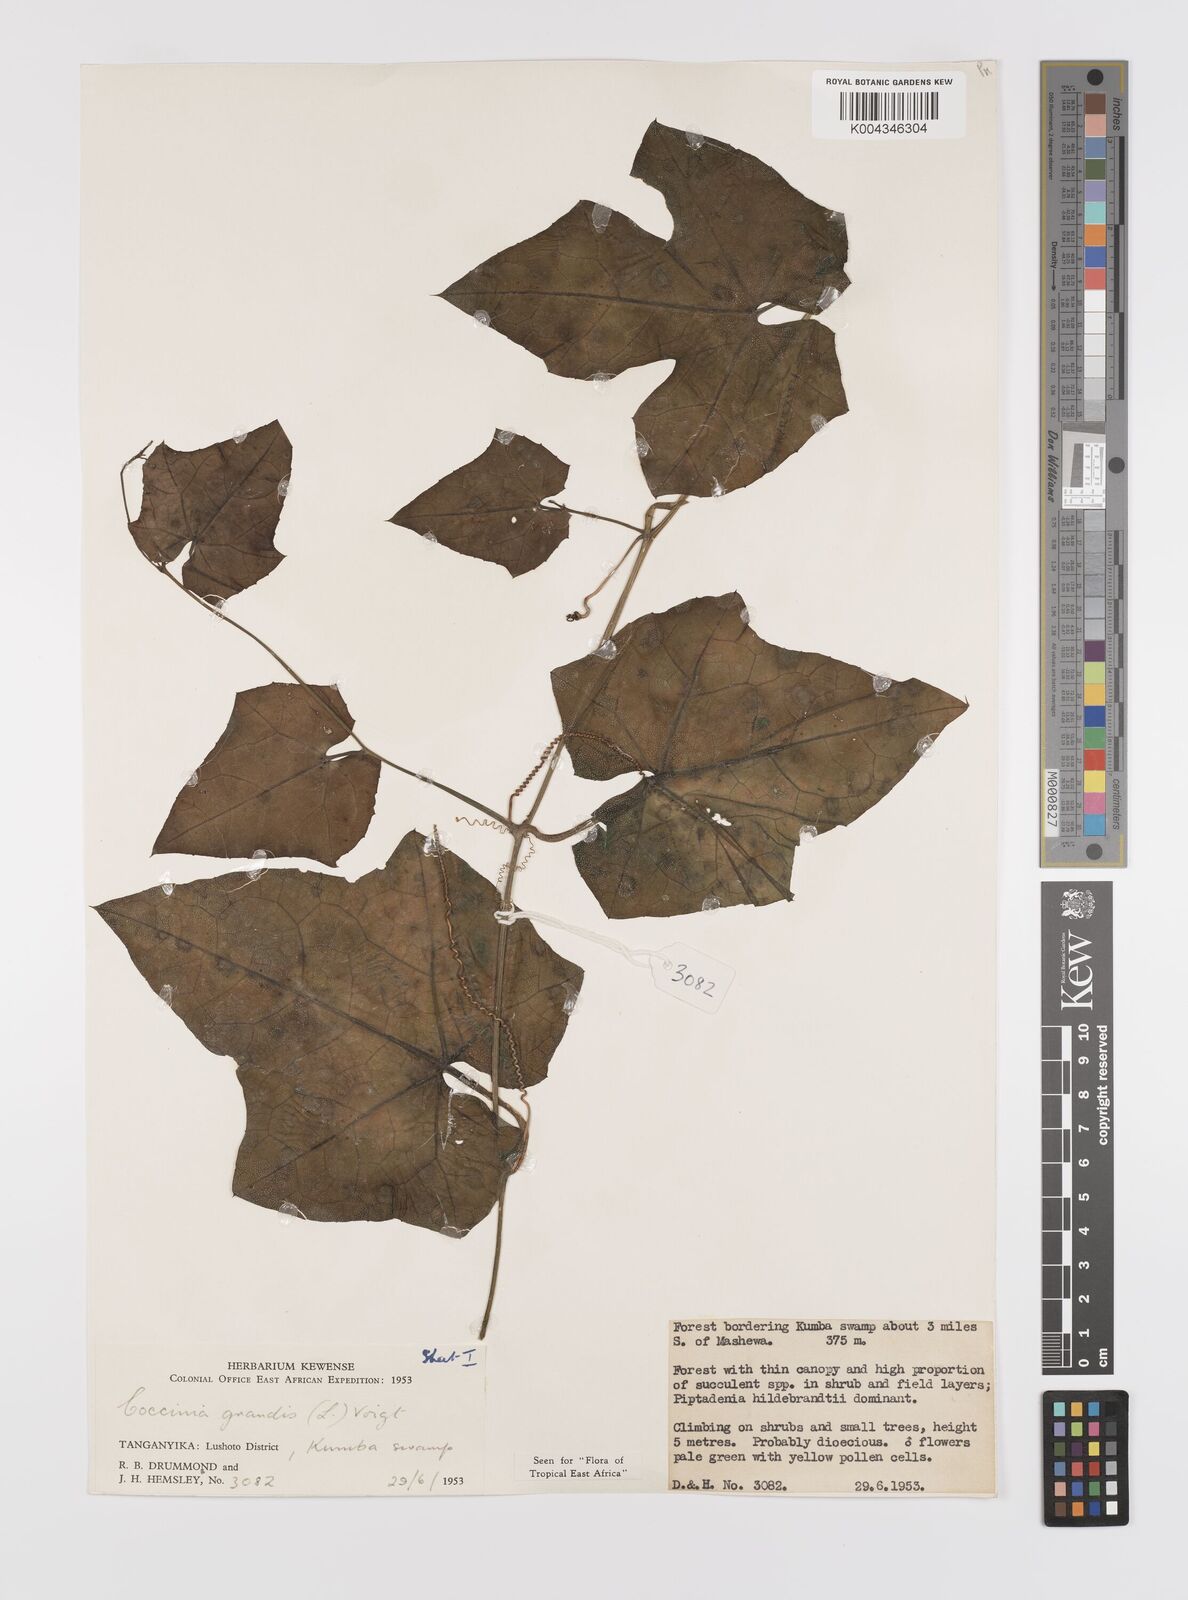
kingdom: Plantae
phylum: Tracheophyta
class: Magnoliopsida
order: Cucurbitales
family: Cucurbitaceae
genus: Coccinia
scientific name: Coccinia grandis
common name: Ivy gourd
